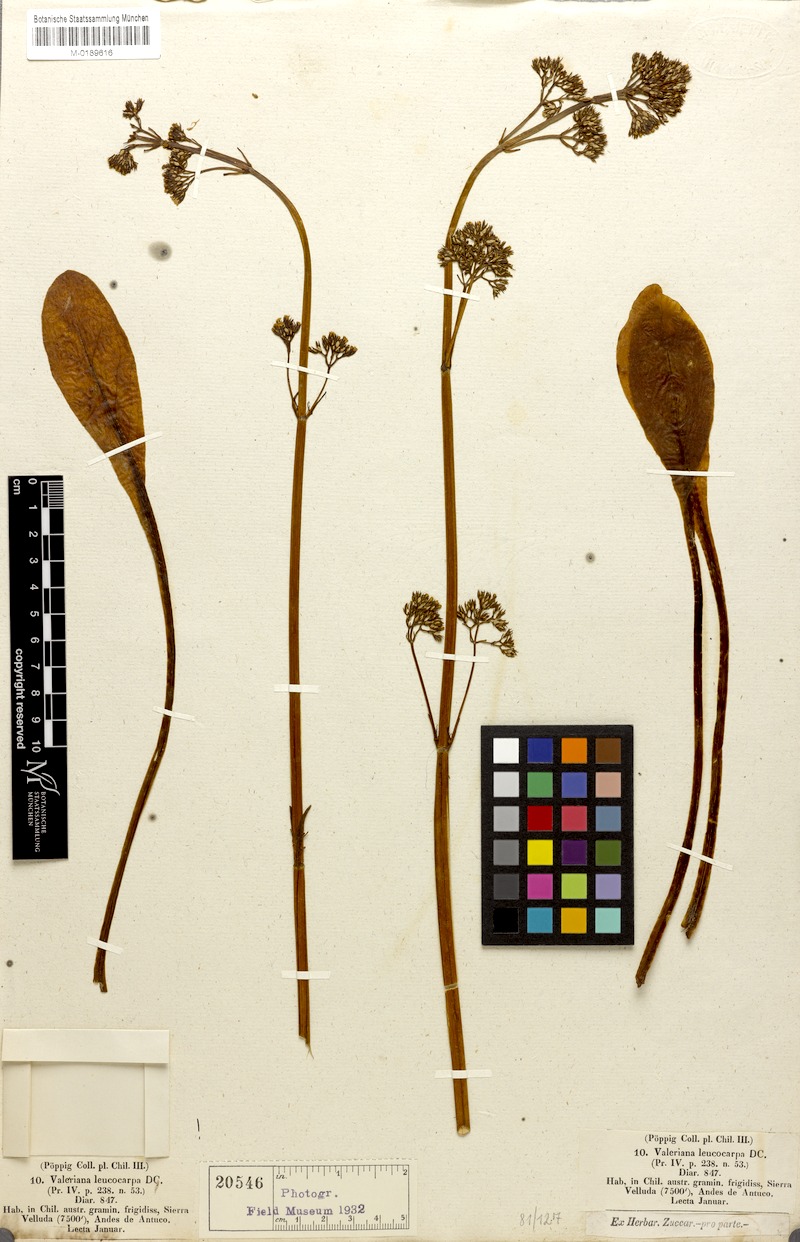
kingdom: Plantae
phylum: Tracheophyta
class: Magnoliopsida
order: Dipsacales
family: Caprifoliaceae
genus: Valeriana
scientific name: Valeriana leucocarpa
